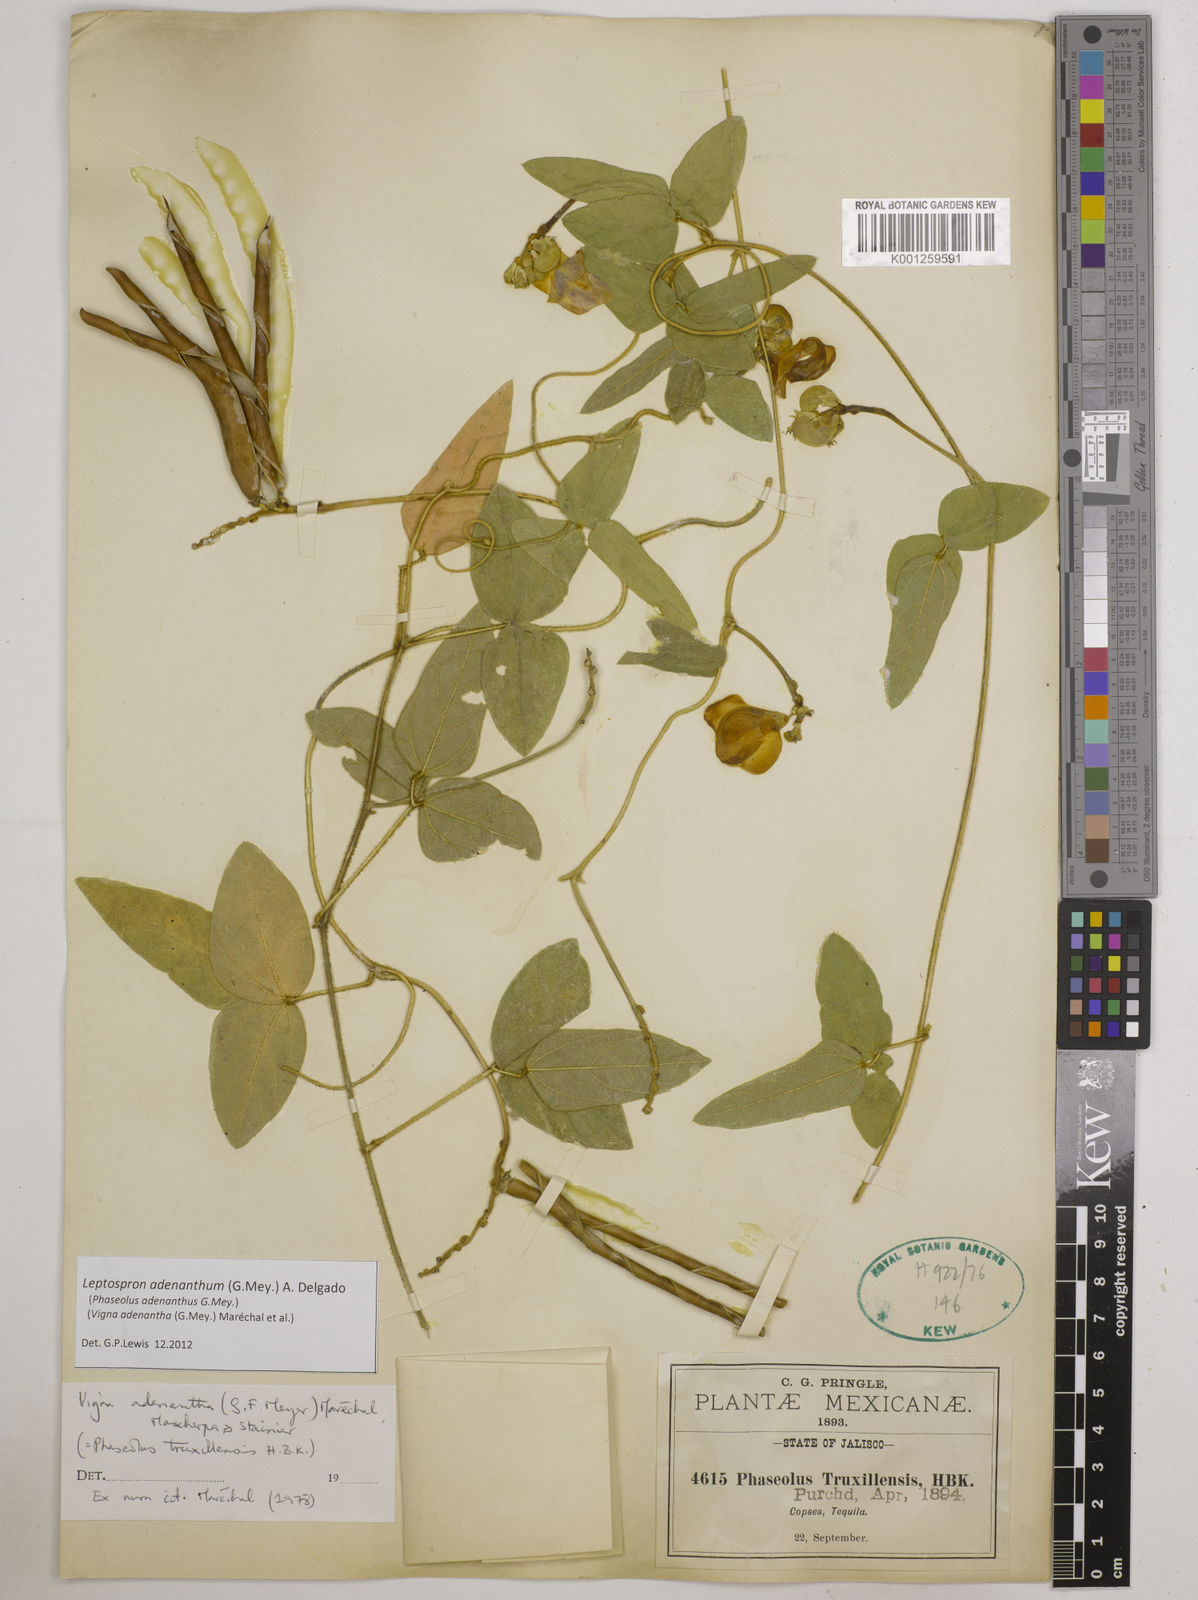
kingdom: Plantae
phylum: Tracheophyta
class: Magnoliopsida
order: Fabales
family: Fabaceae
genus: Leptospron
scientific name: Leptospron adenanthum
